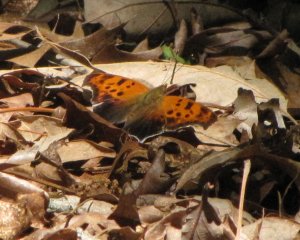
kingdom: Animalia
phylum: Arthropoda
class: Insecta
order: Lepidoptera
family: Nymphalidae
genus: Polygonia
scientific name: Polygonia interrogationis
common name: Question Mark
